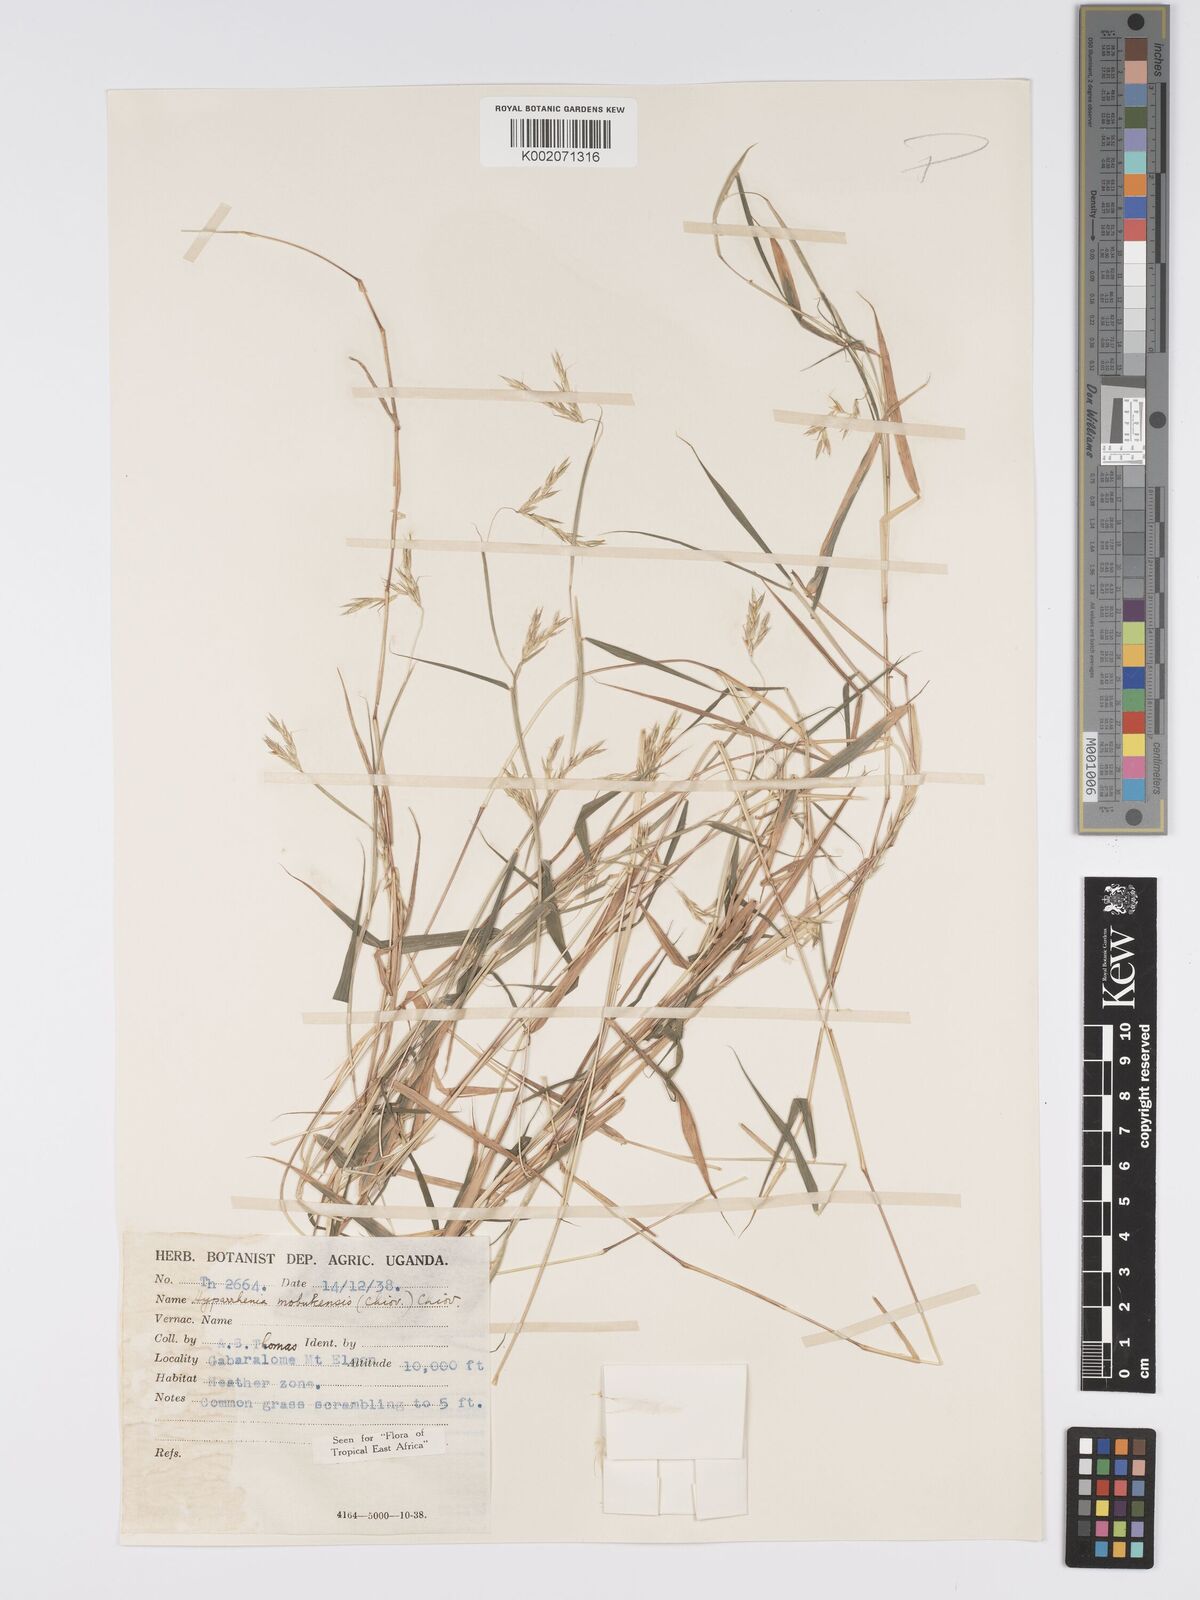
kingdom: Plantae
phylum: Tracheophyta
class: Liliopsida
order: Poales
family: Poaceae
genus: Hyparrhenia
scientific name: Hyparrhenia mobukensis
